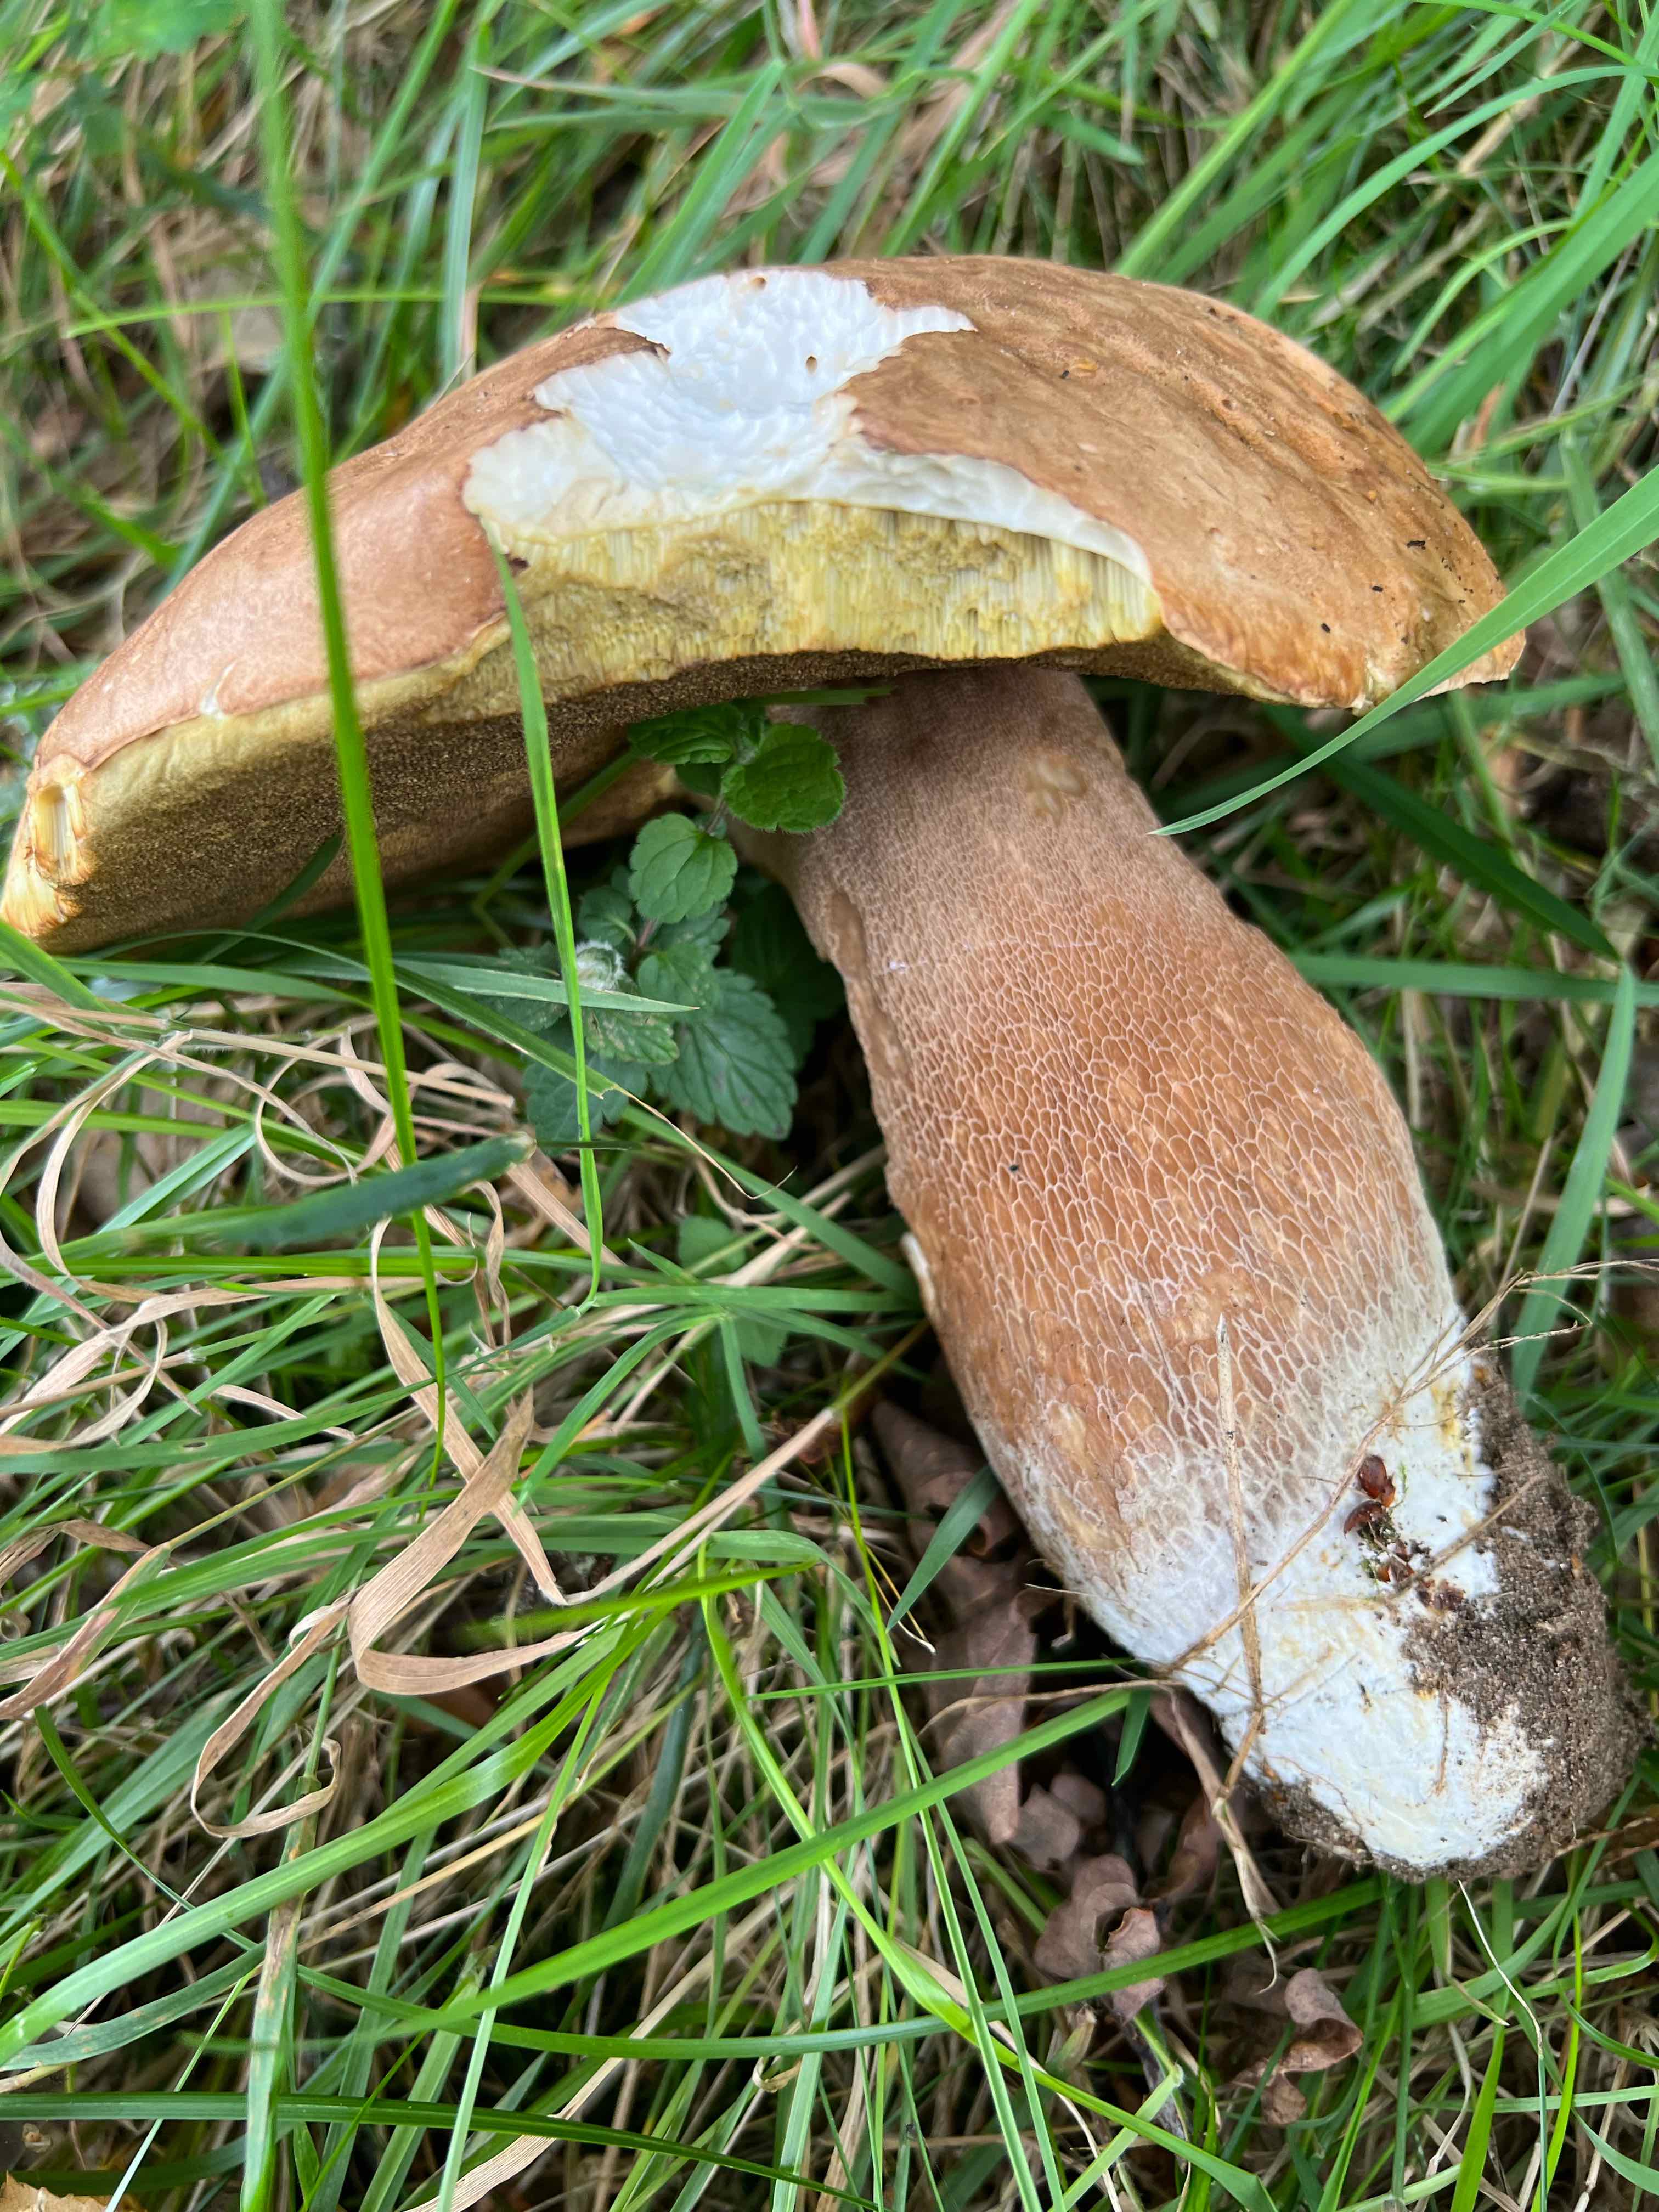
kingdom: Fungi
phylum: Basidiomycota
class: Agaricomycetes
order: Boletales
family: Boletaceae
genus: Boletus
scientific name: Boletus reticulatus
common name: sommer-rørhat
